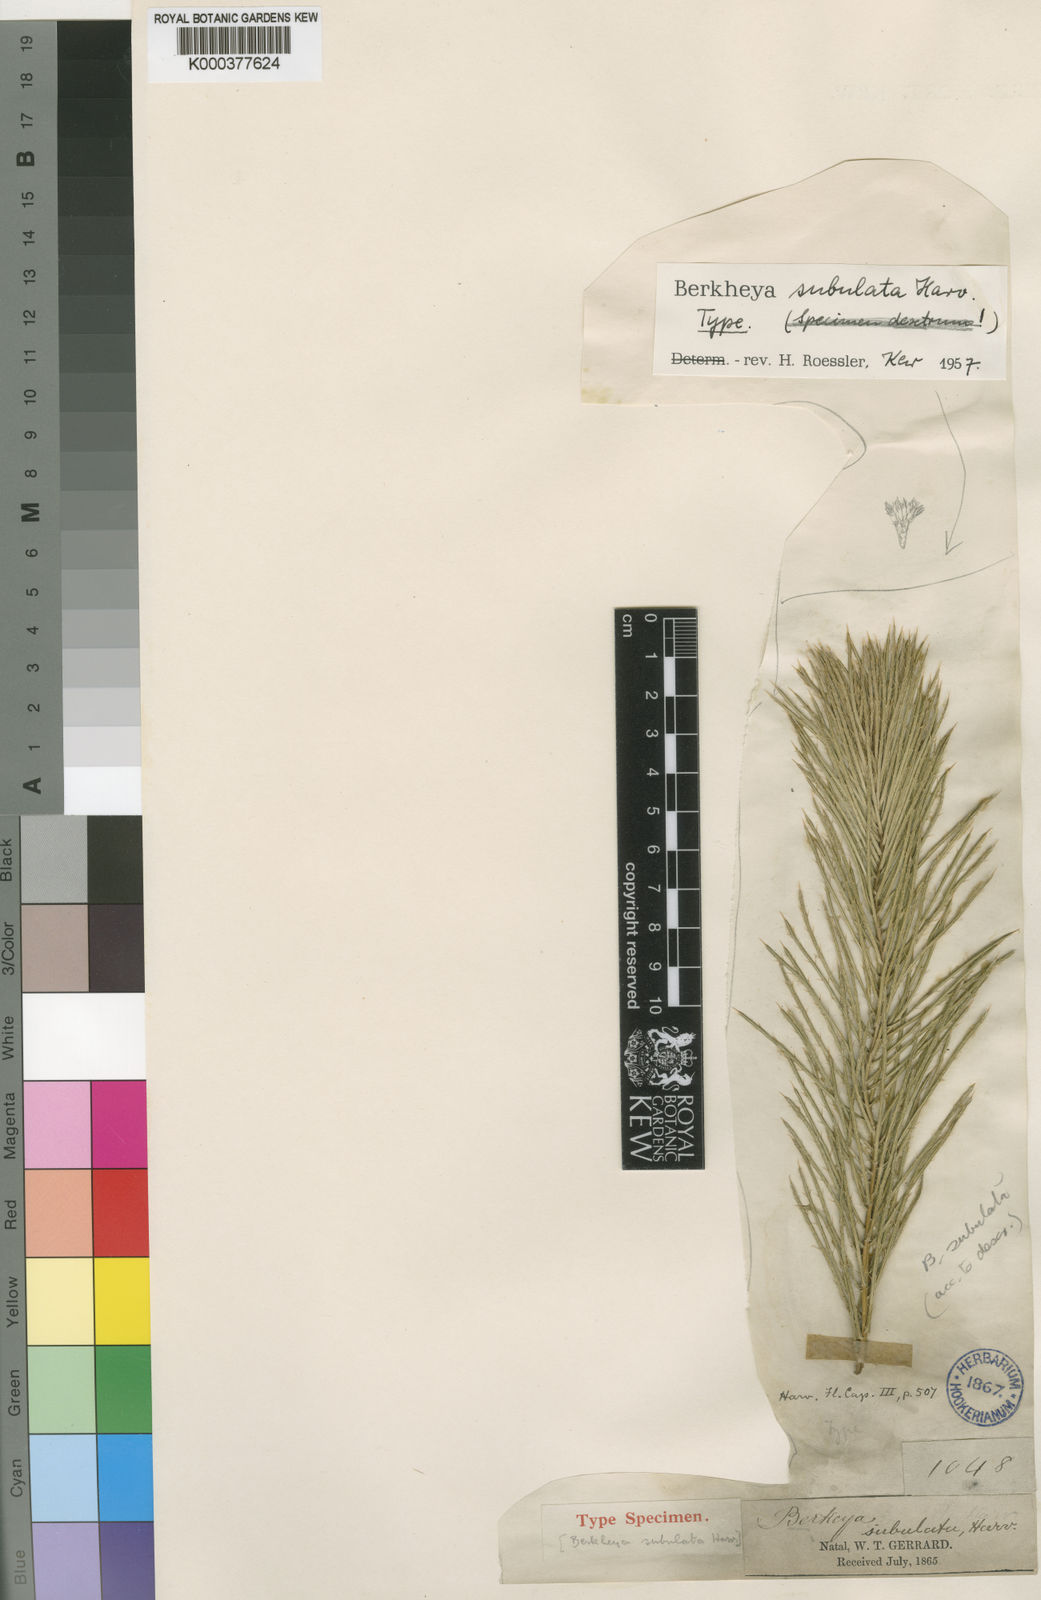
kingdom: Plantae
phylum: Tracheophyta
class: Magnoliopsida
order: Asterales
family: Asteraceae
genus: Berkheya
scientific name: Berkheya subulata
